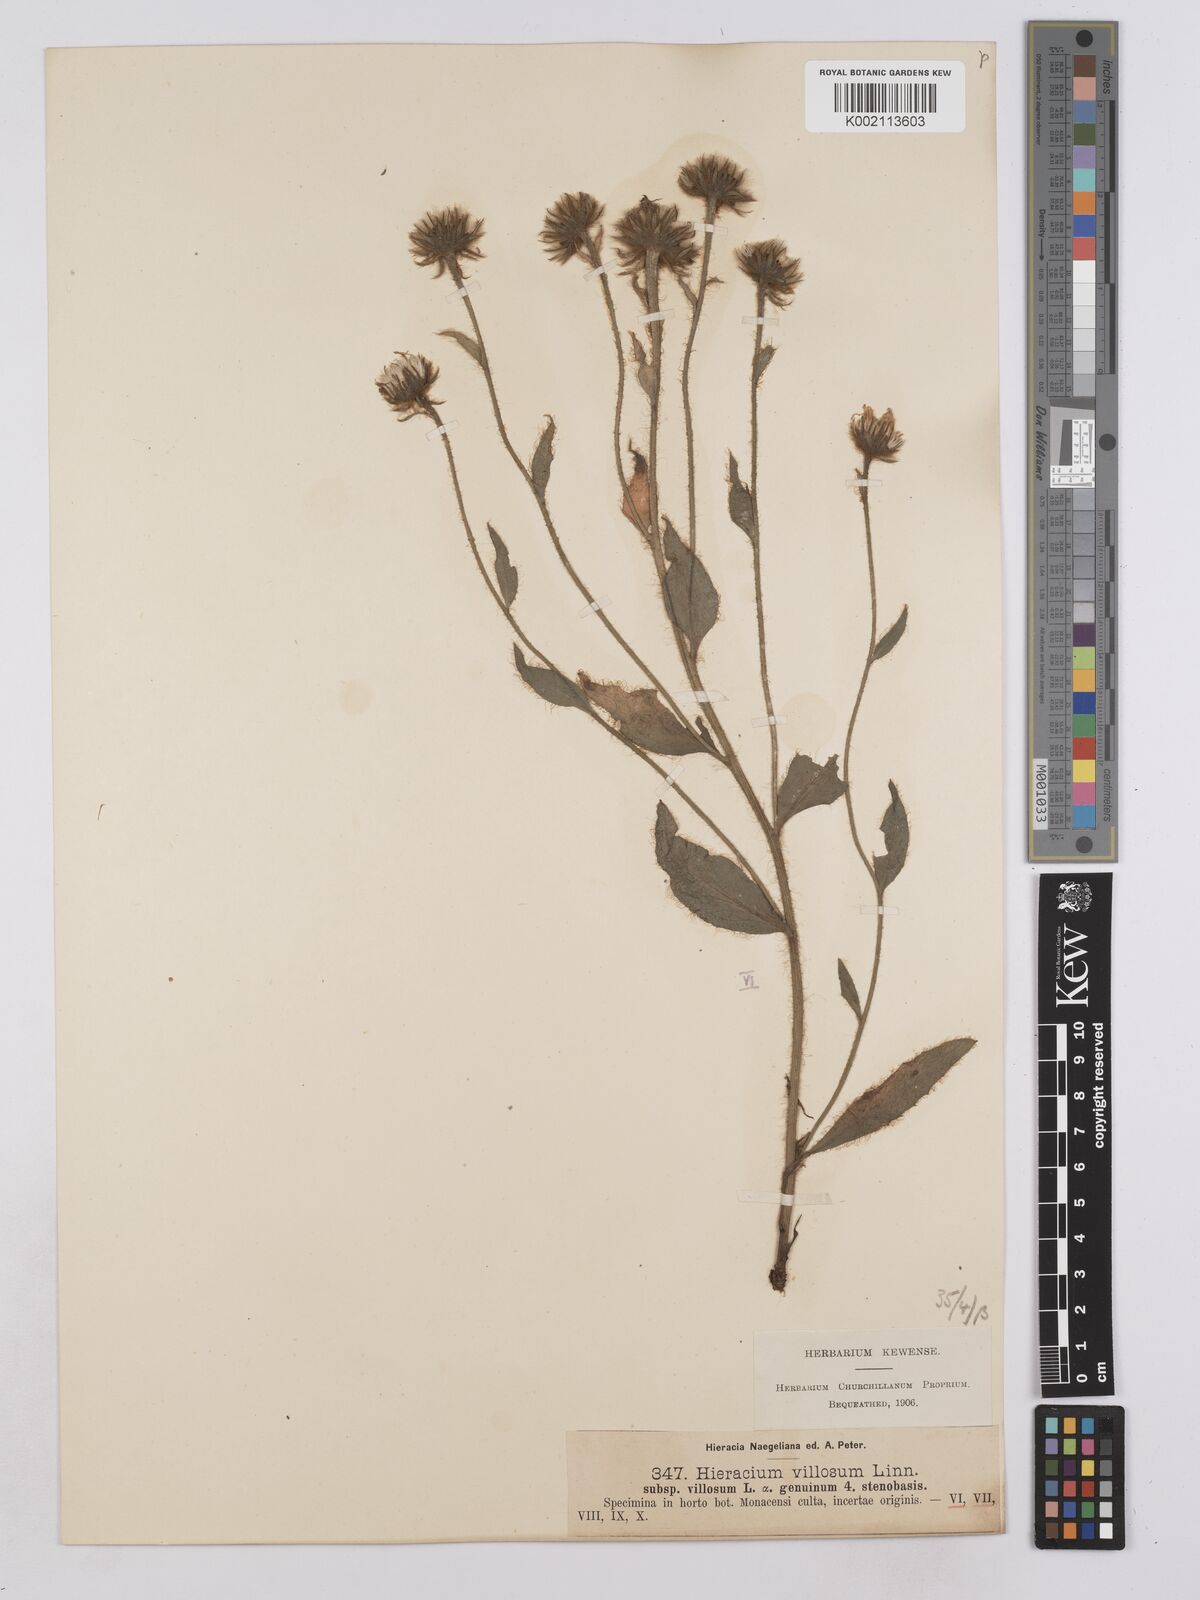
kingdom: Plantae
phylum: Tracheophyta
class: Magnoliopsida
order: Asterales
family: Asteraceae
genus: Hieracium
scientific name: Hieracium villosum
